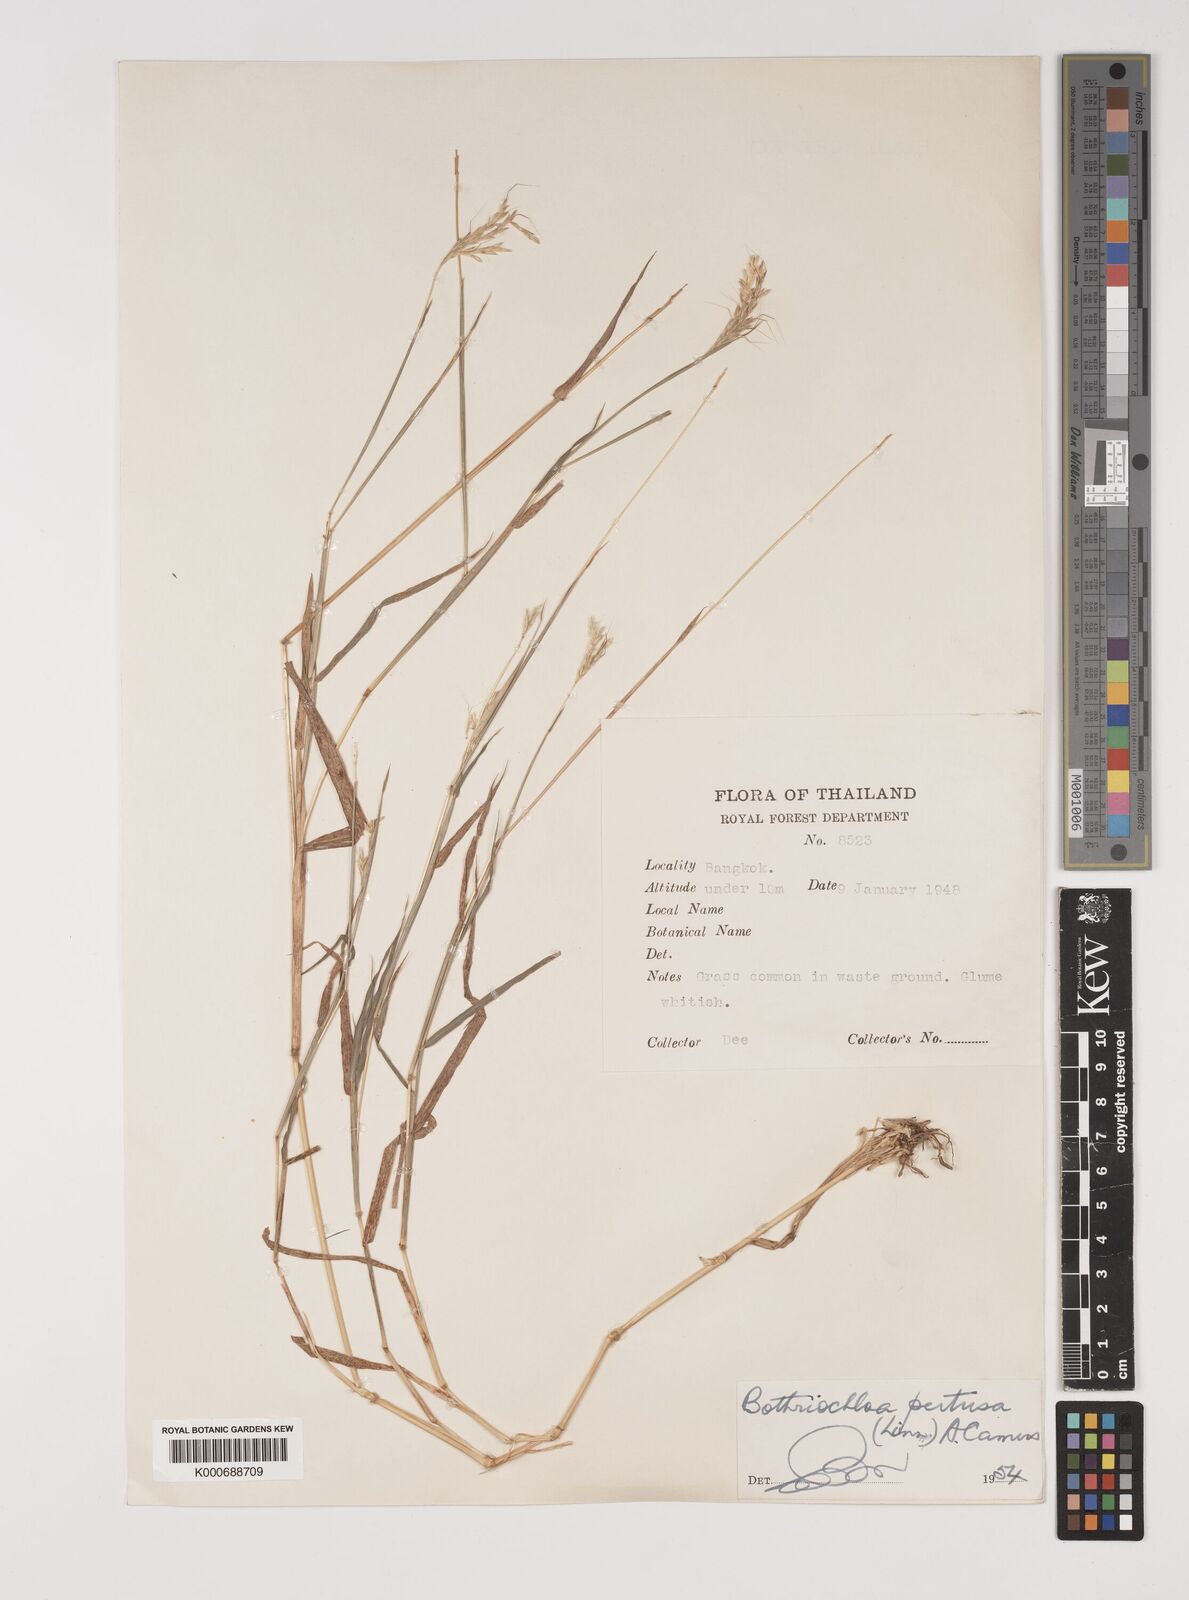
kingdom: Plantae
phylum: Tracheophyta
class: Liliopsida
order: Poales
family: Poaceae
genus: Bothriochloa
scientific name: Bothriochloa pertusa
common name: Pitted beardgrass
